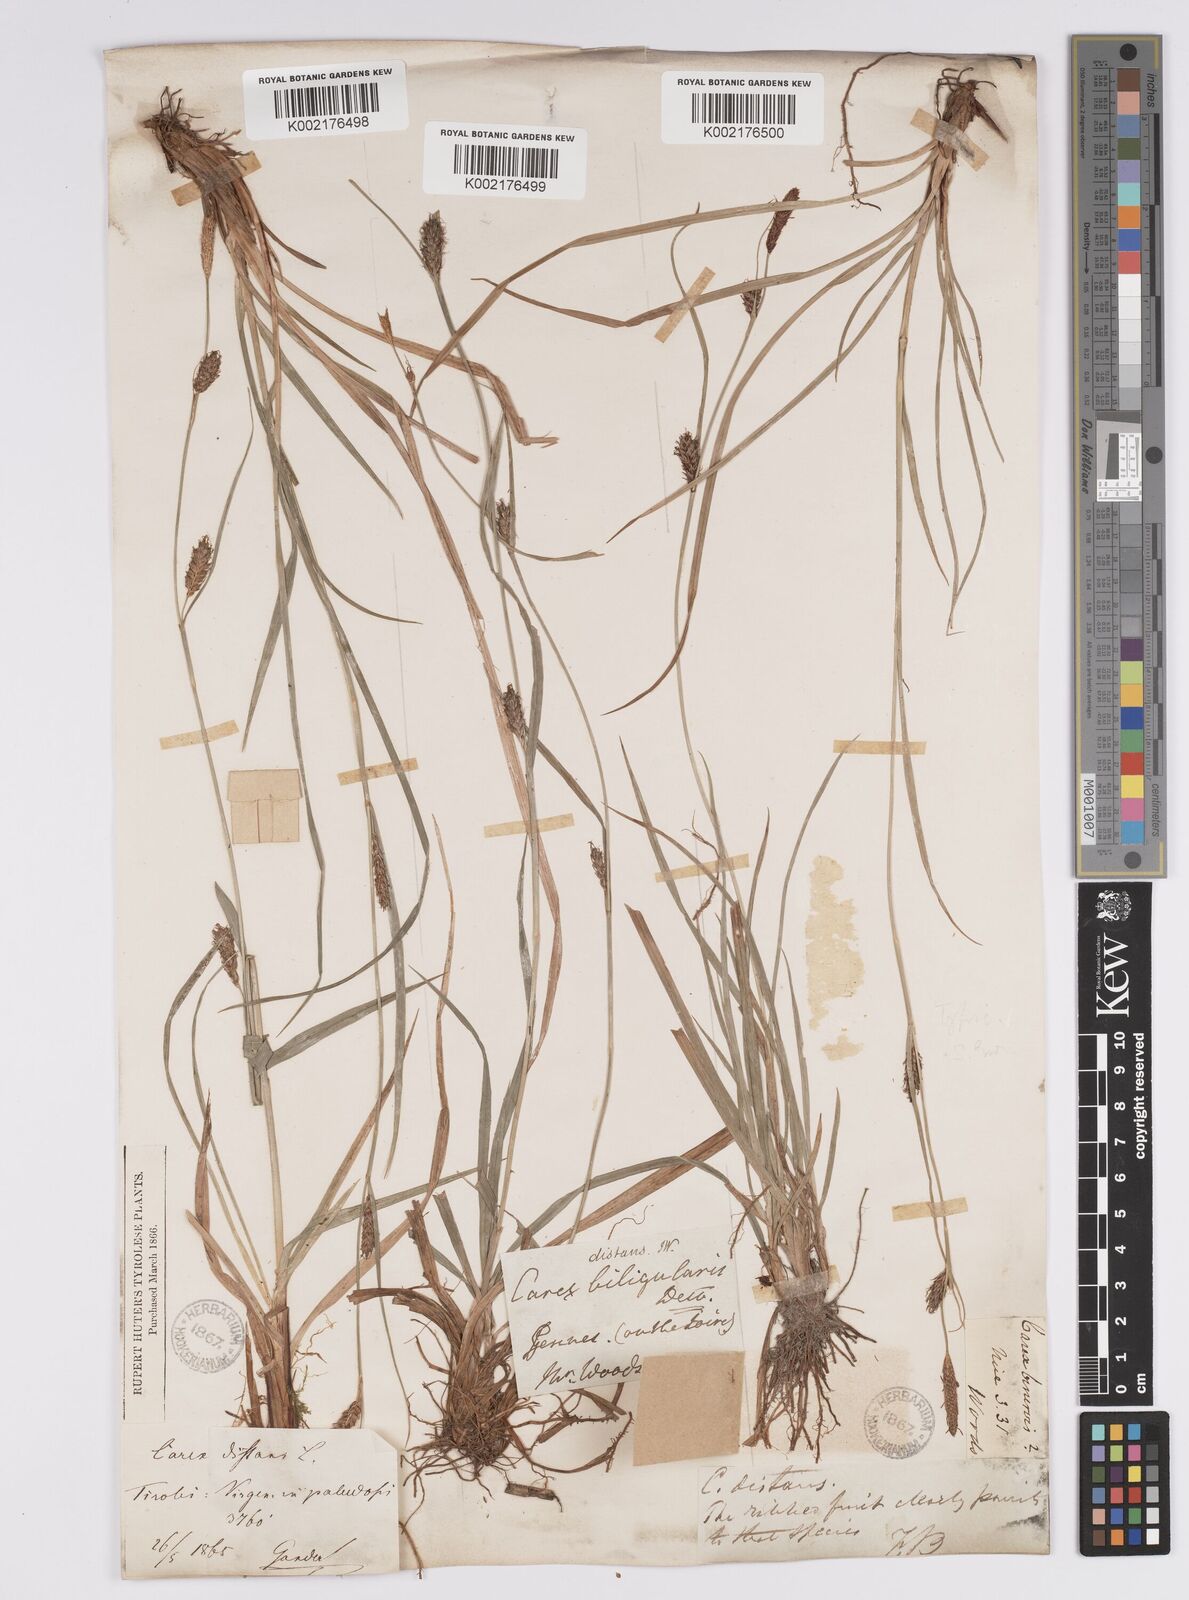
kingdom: Plantae
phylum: Tracheophyta
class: Liliopsida
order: Poales
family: Cyperaceae
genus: Carex
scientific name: Carex distans
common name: Distant sedge
